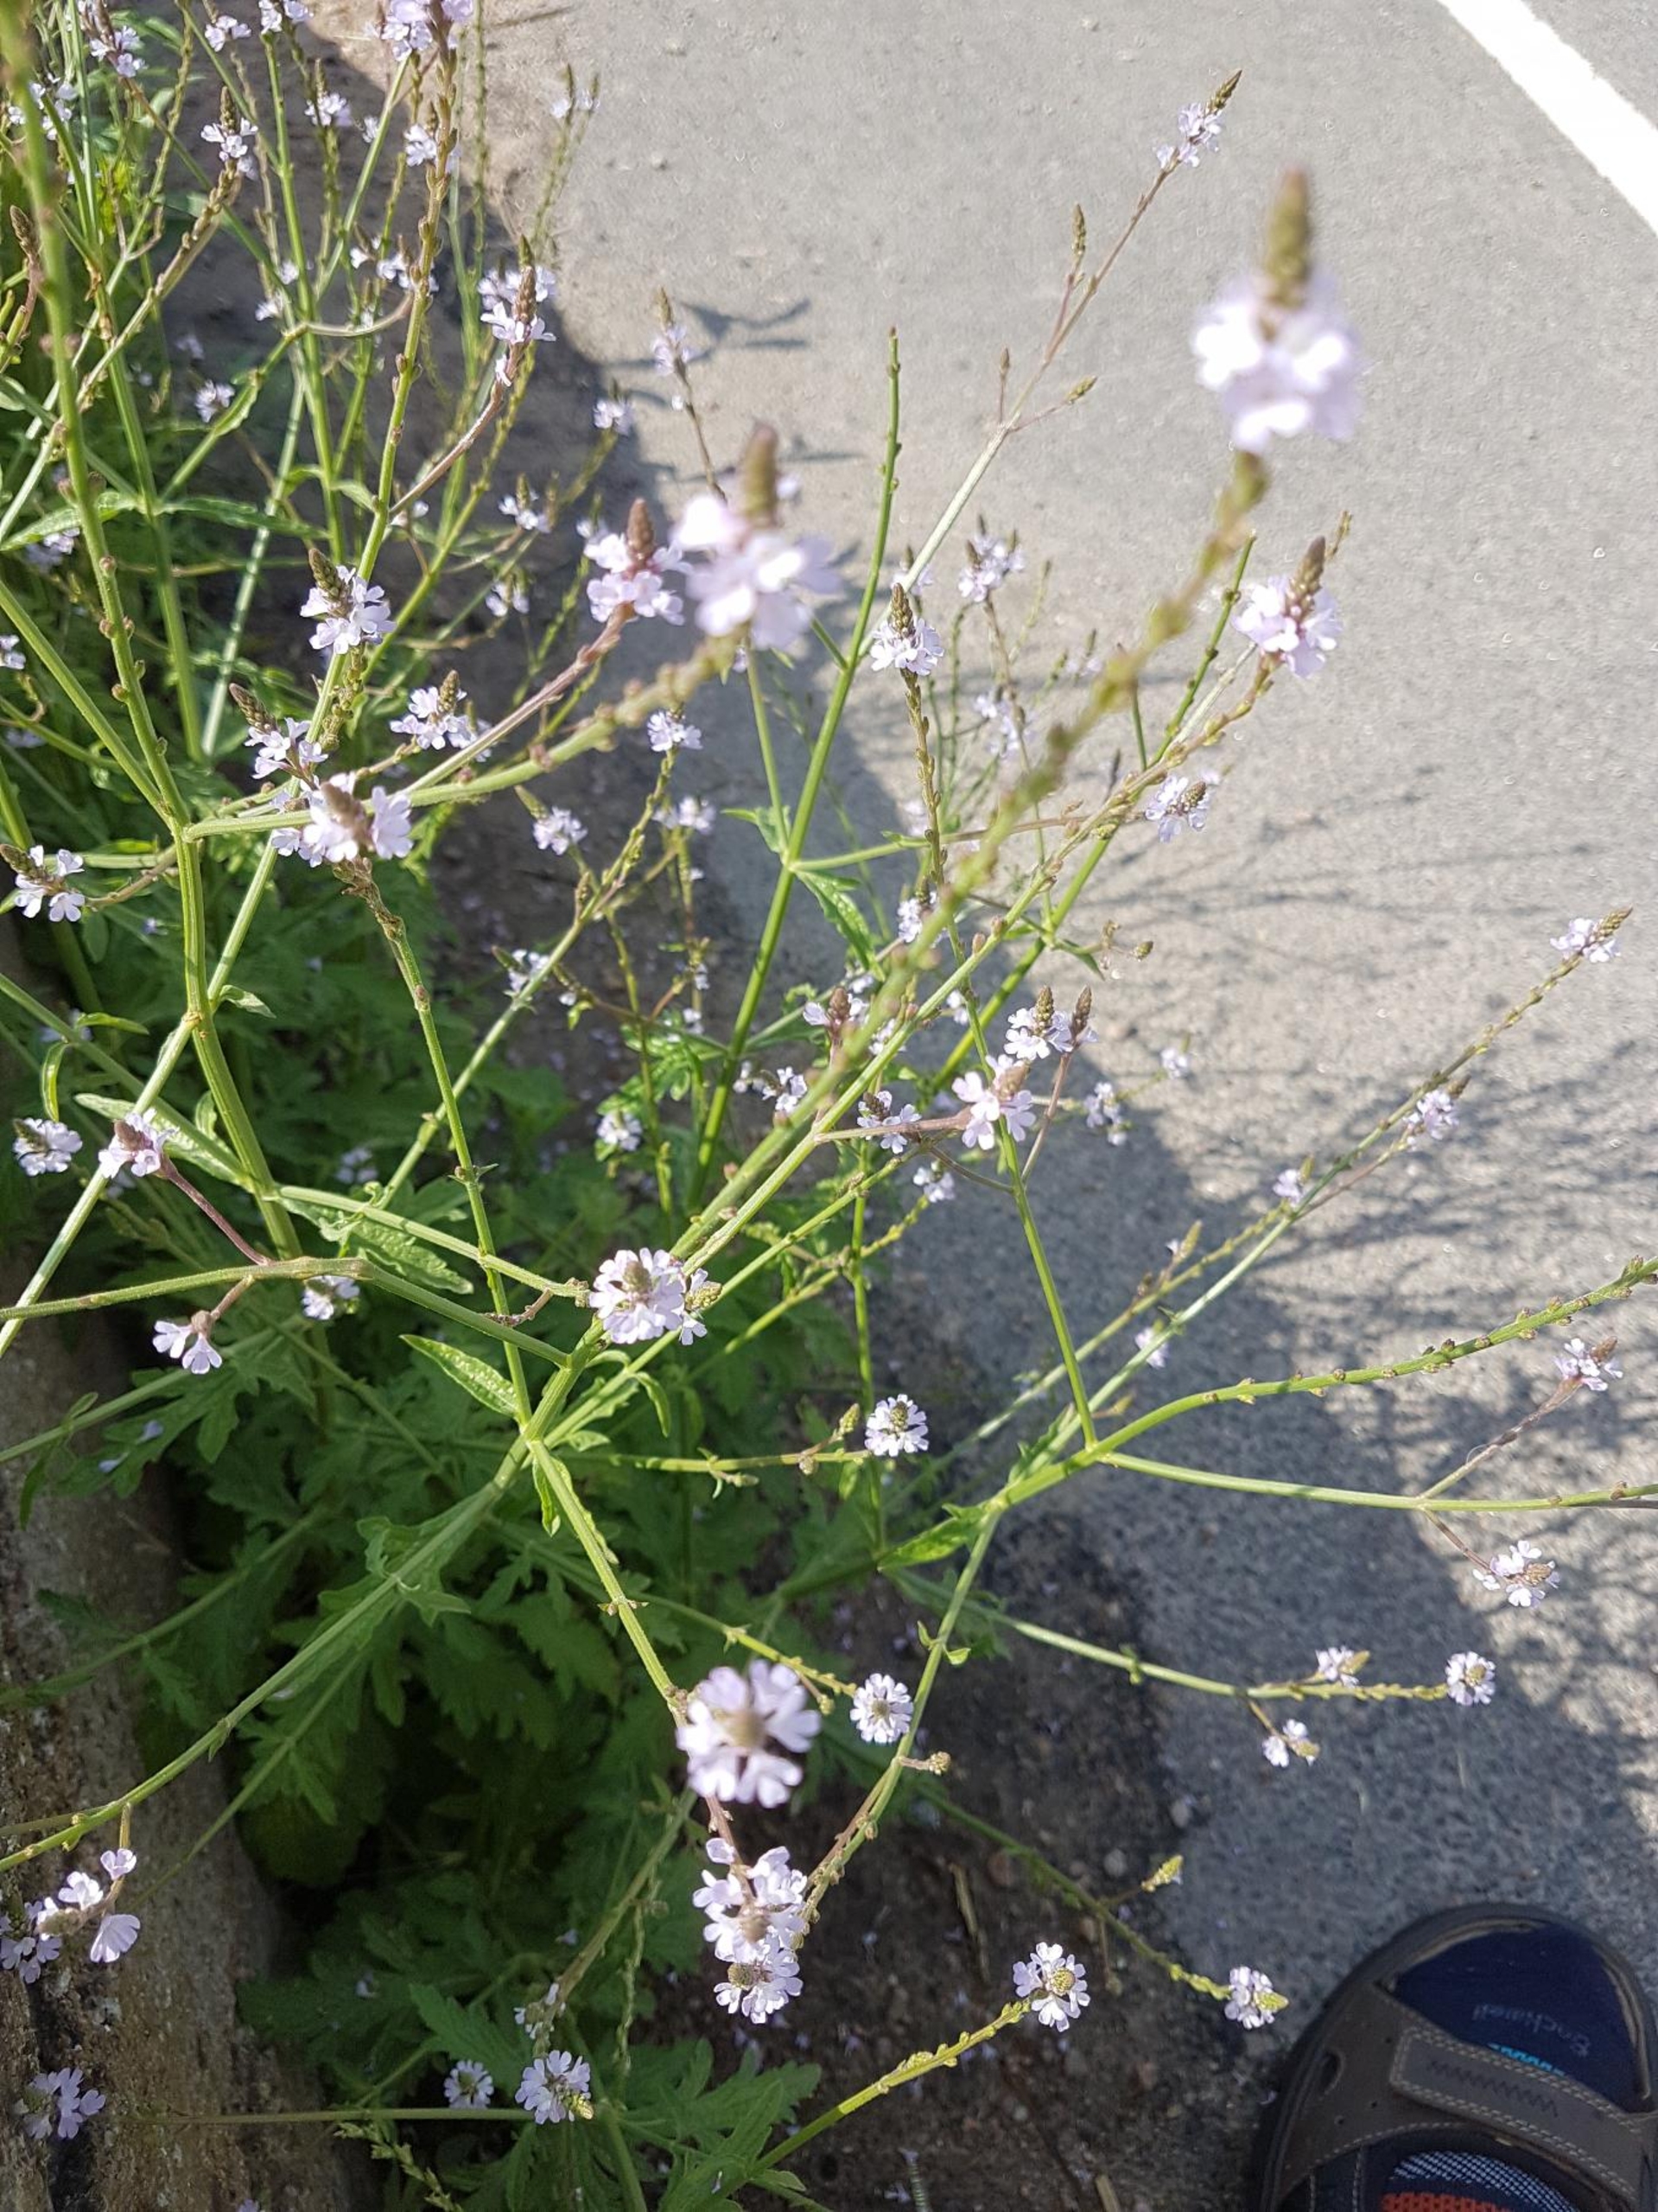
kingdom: Plantae
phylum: Tracheophyta
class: Magnoliopsida
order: Lamiales
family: Verbenaceae
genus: Verbena
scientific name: Verbena officinalis
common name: Læge-jernurt
